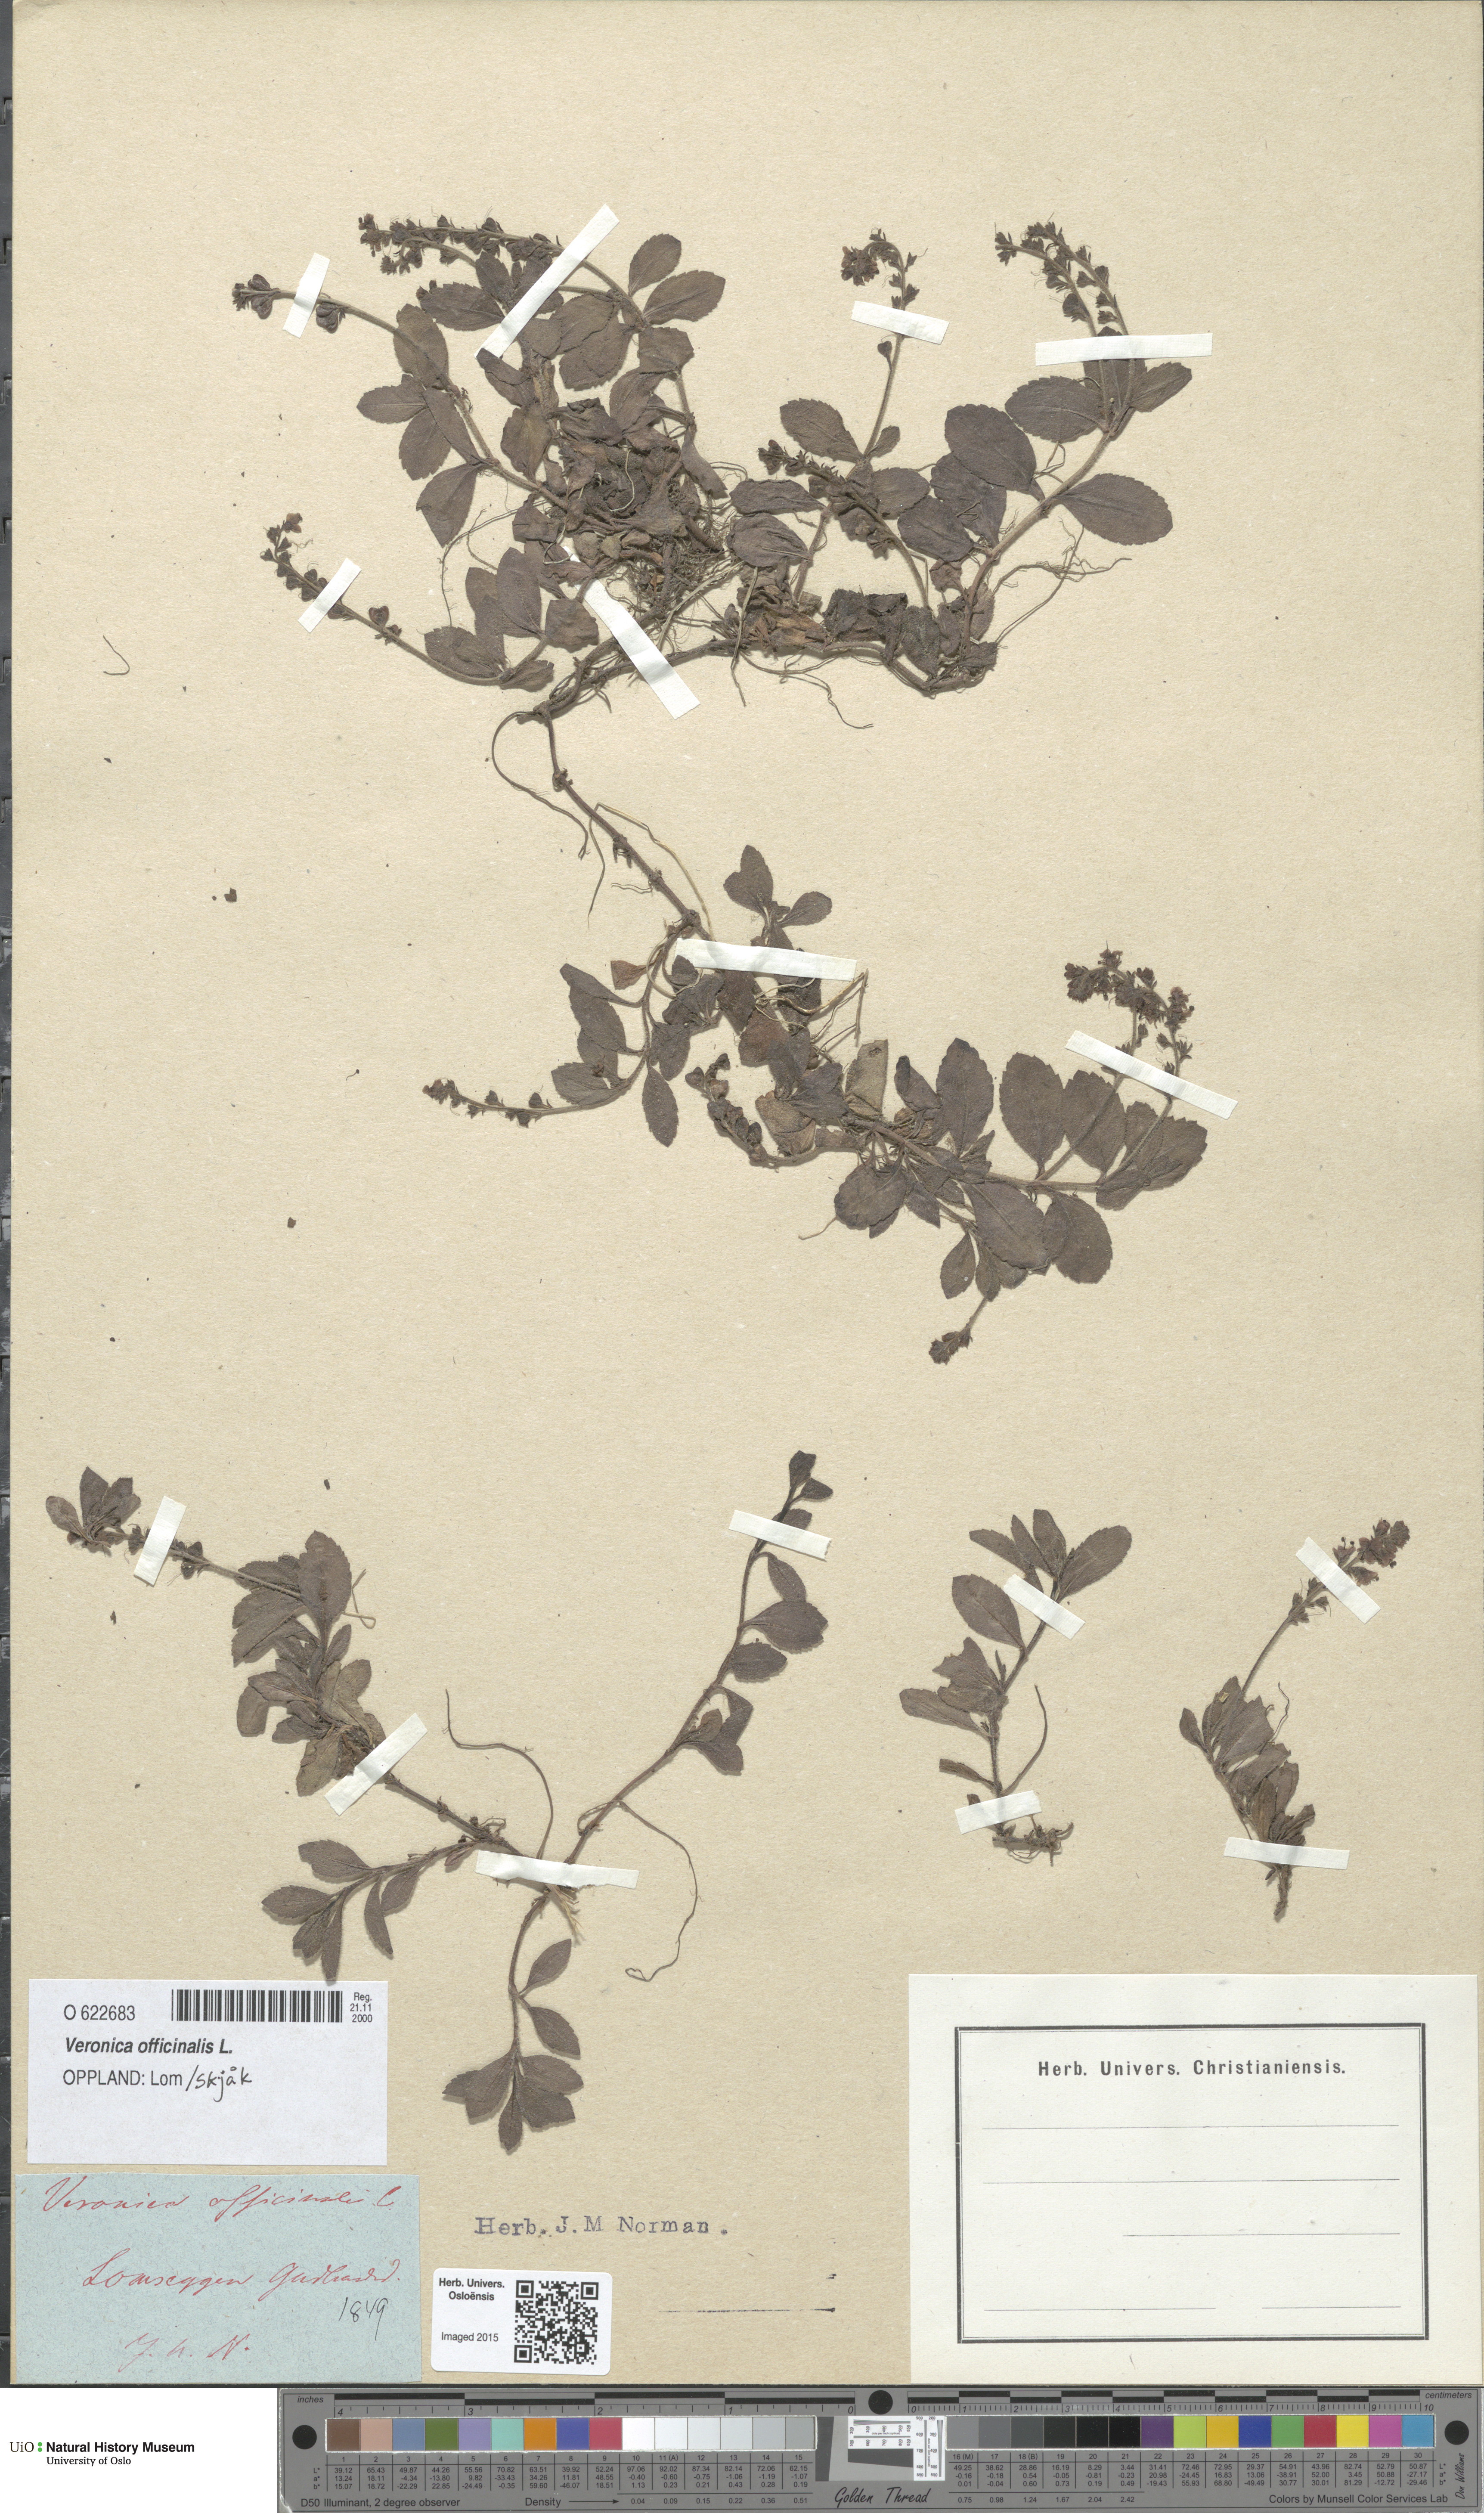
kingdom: Plantae
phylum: Tracheophyta
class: Magnoliopsida
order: Lamiales
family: Plantaginaceae
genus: Veronica
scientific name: Veronica officinalis
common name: Common speedwell
